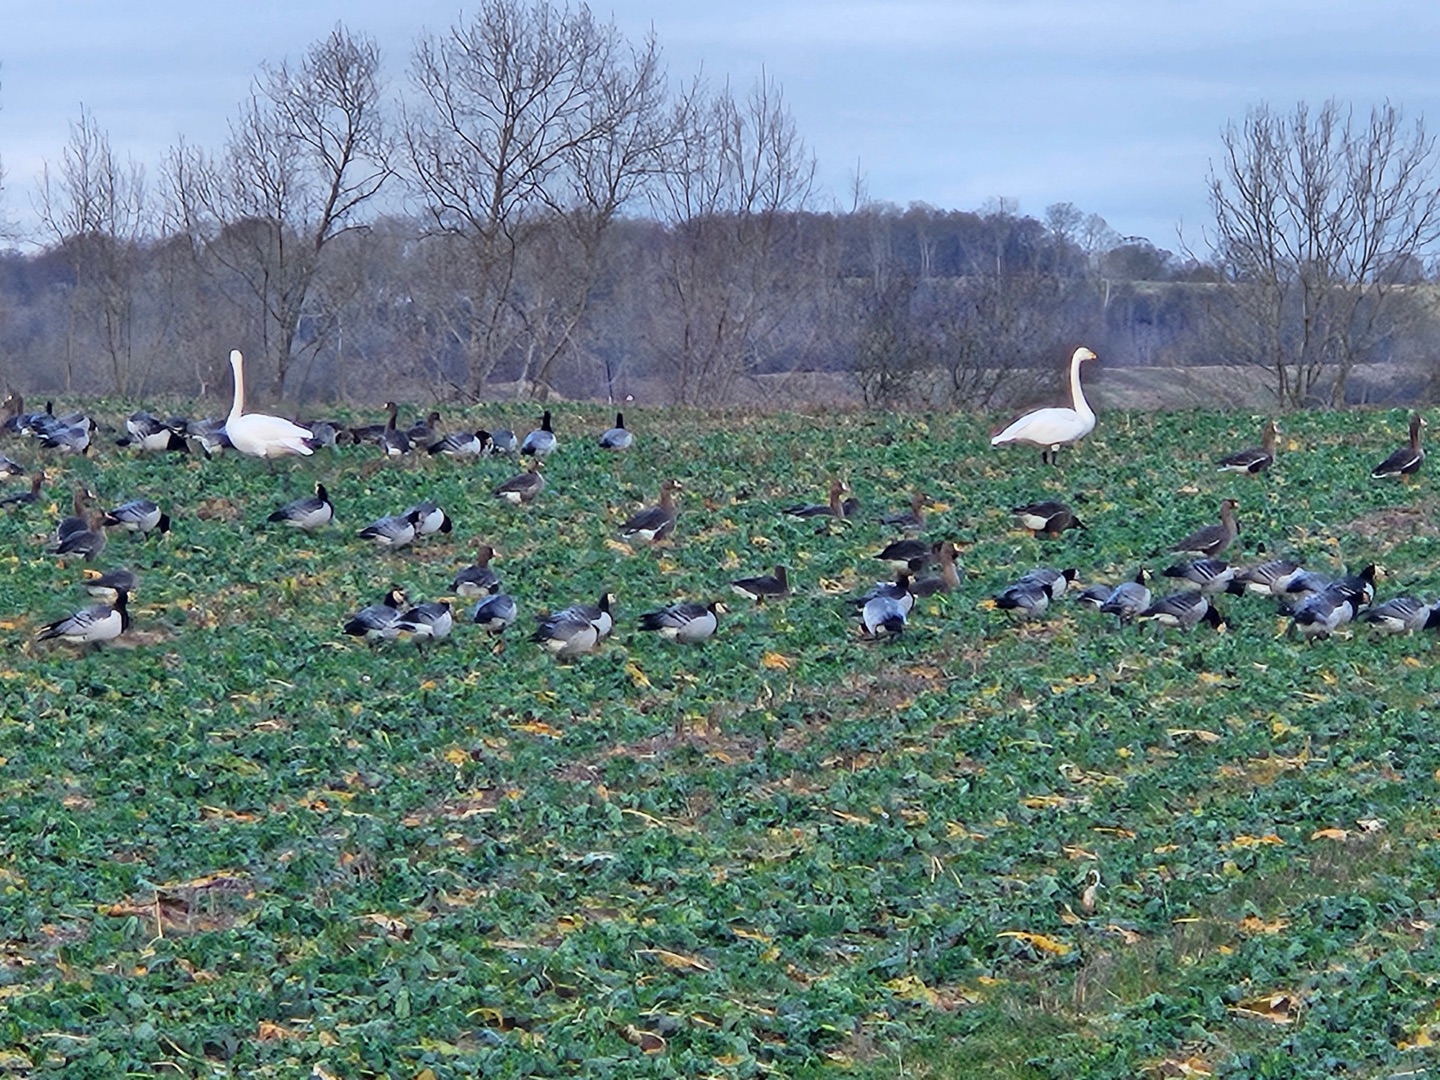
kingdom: Animalia
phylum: Chordata
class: Aves
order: Anseriformes
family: Anatidae
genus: Branta
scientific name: Branta leucopsis
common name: Bramgås
